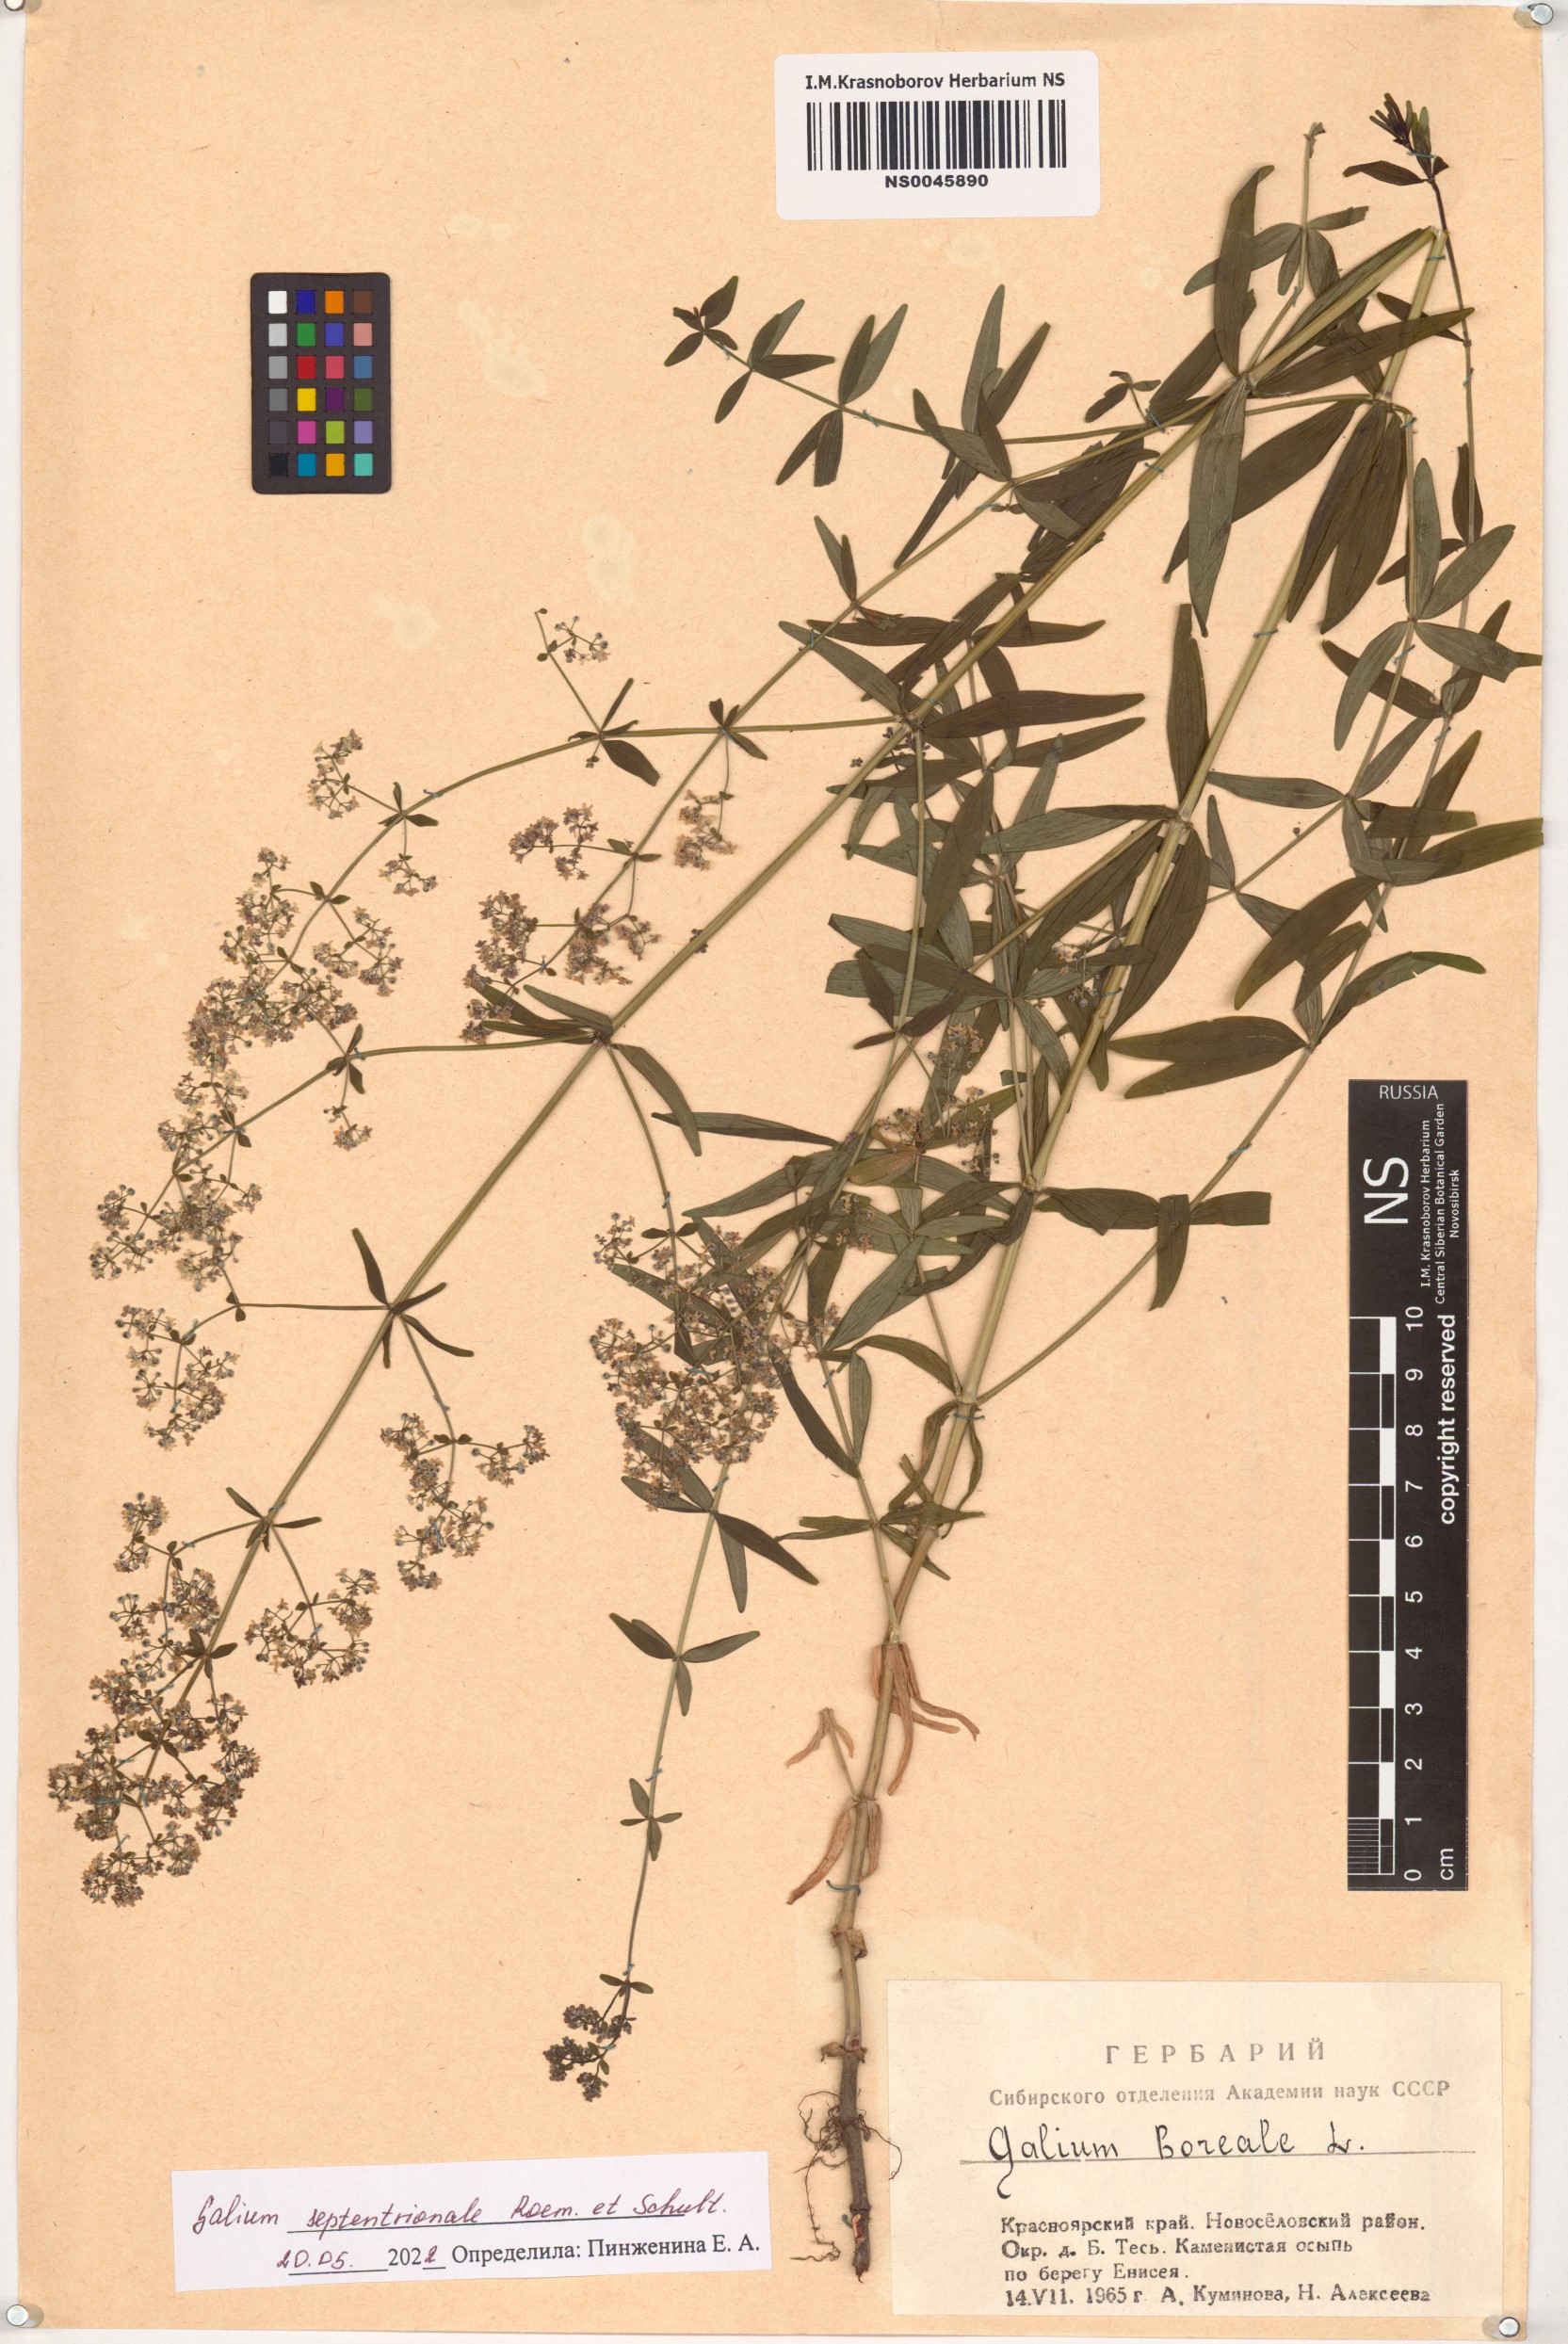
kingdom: Plantae
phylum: Tracheophyta
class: Magnoliopsida
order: Gentianales
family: Rubiaceae
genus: Galium
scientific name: Galium boreale
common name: Northern bedstraw
